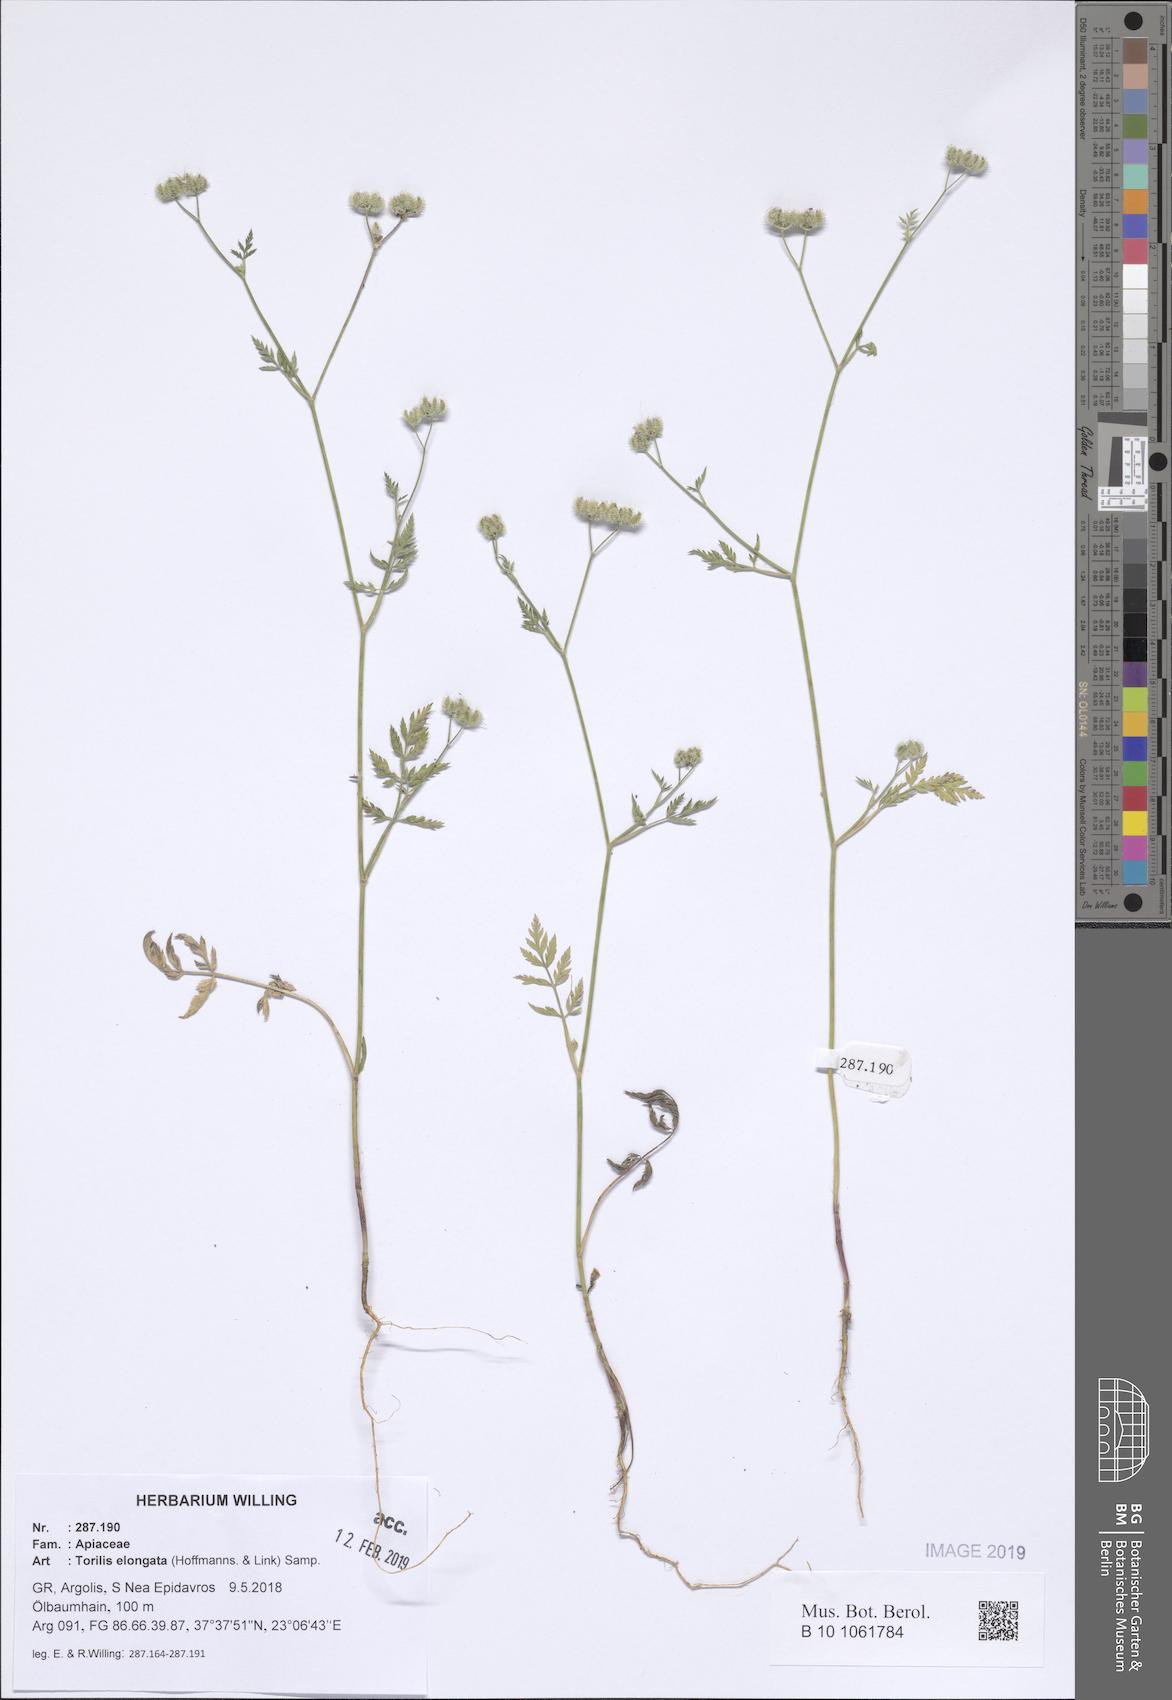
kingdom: Plantae
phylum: Tracheophyta
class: Magnoliopsida
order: Apiales
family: Apiaceae
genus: Torilis
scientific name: Torilis elongata
